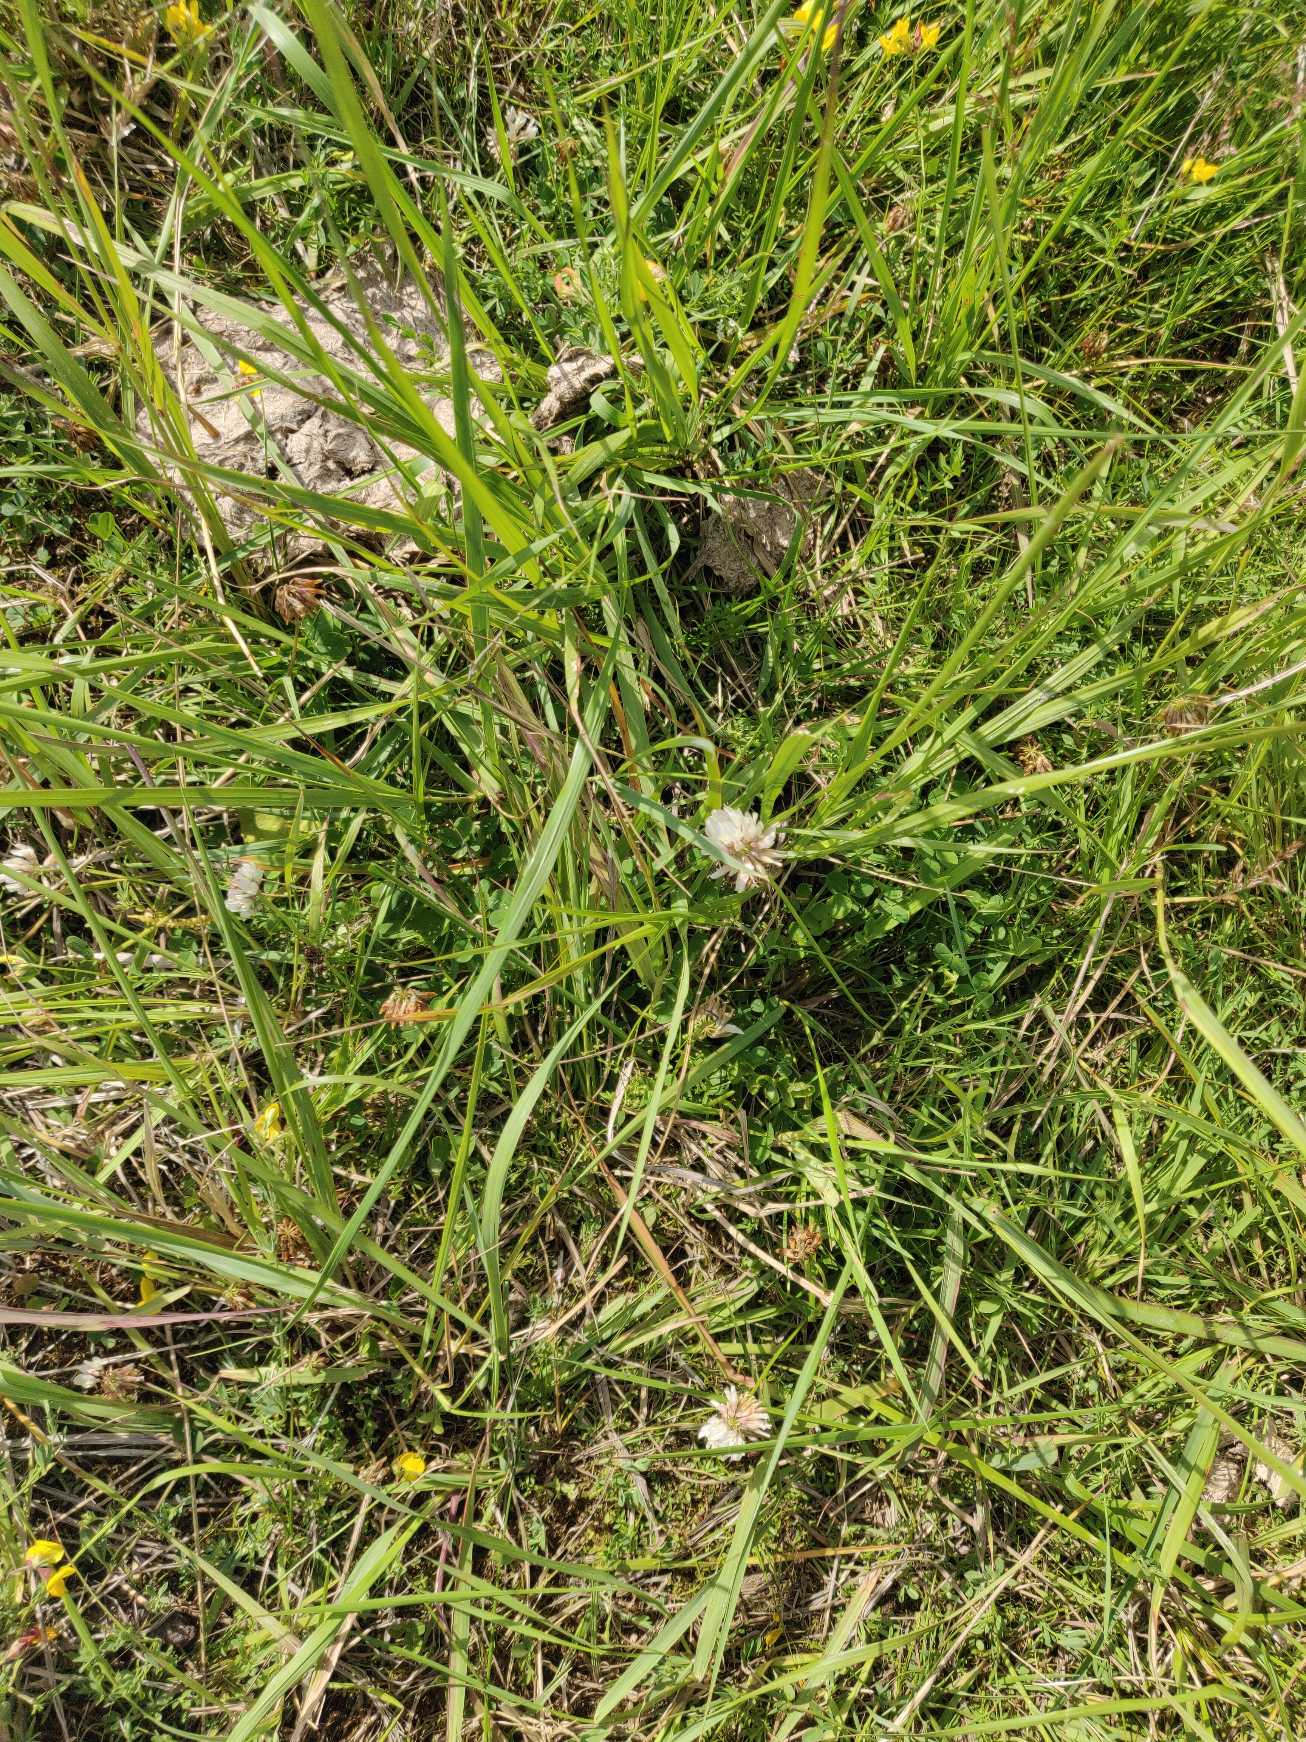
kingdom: Plantae
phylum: Tracheophyta
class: Magnoliopsida
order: Fabales
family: Fabaceae
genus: Trifolium
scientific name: Trifolium repens
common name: Hvid-kløver
